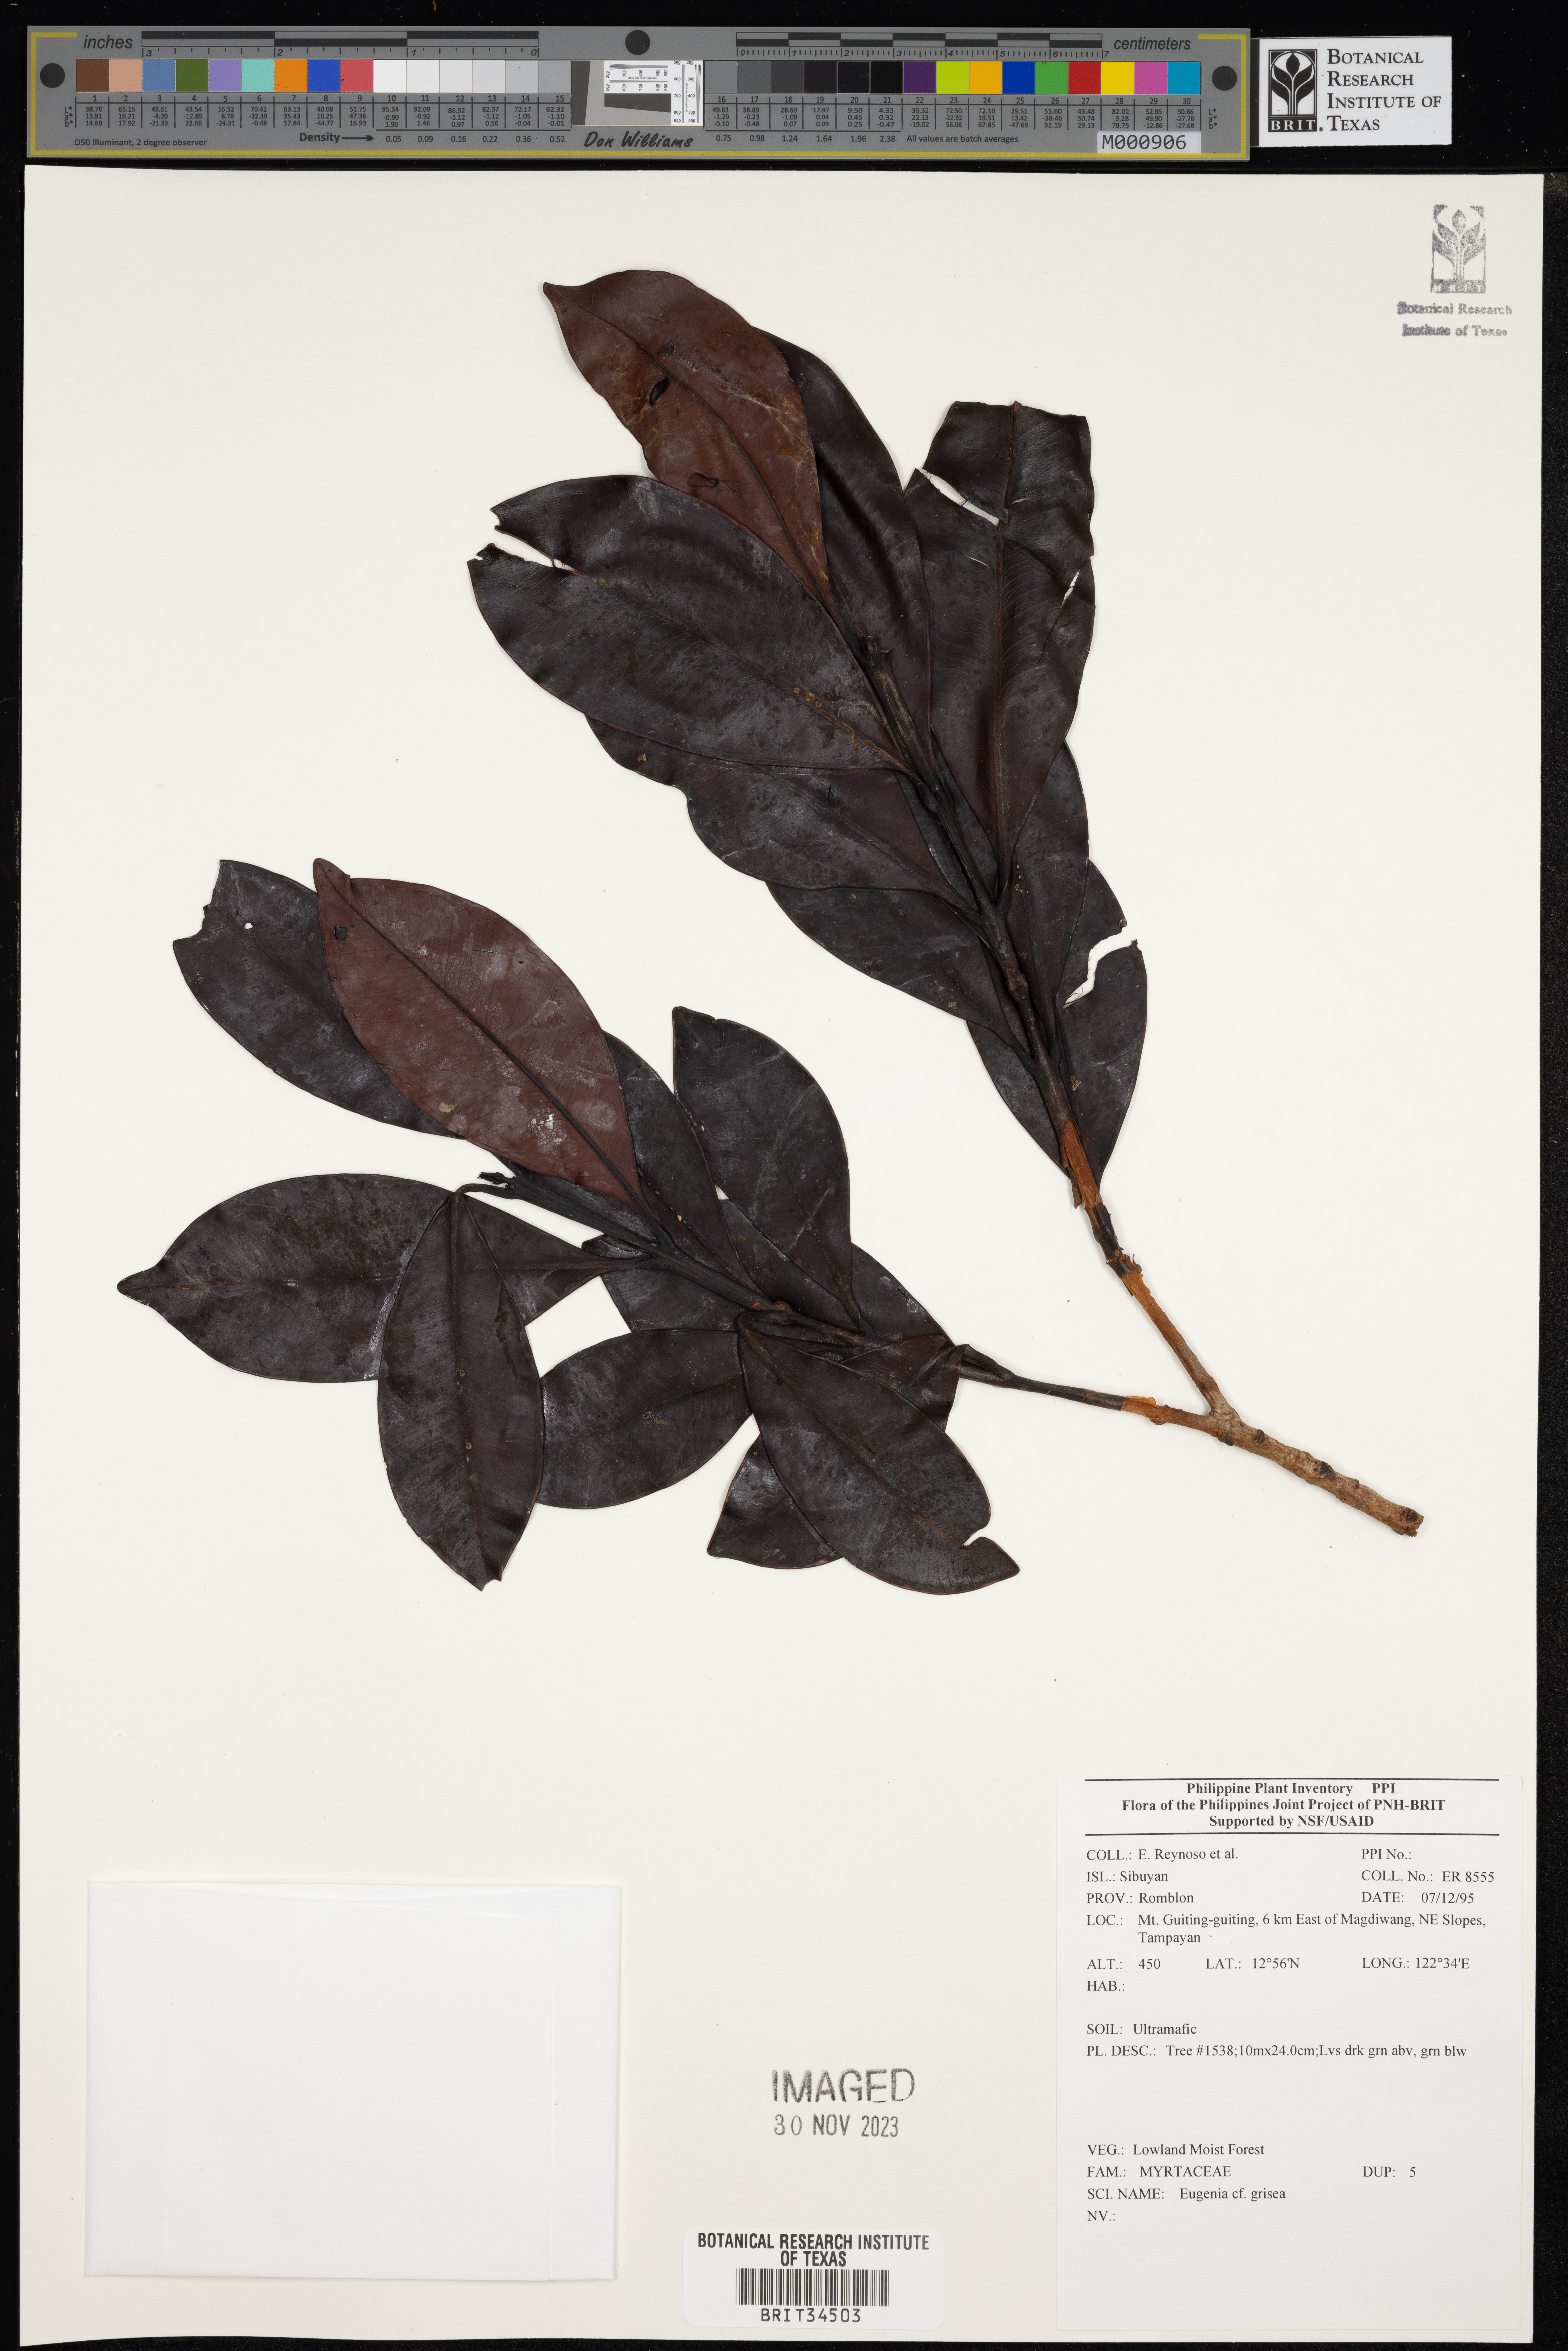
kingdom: Plantae
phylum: Tracheophyta
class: Magnoliopsida
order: Myrtales
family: Myrtaceae
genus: Eugenia
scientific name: Eugenia
